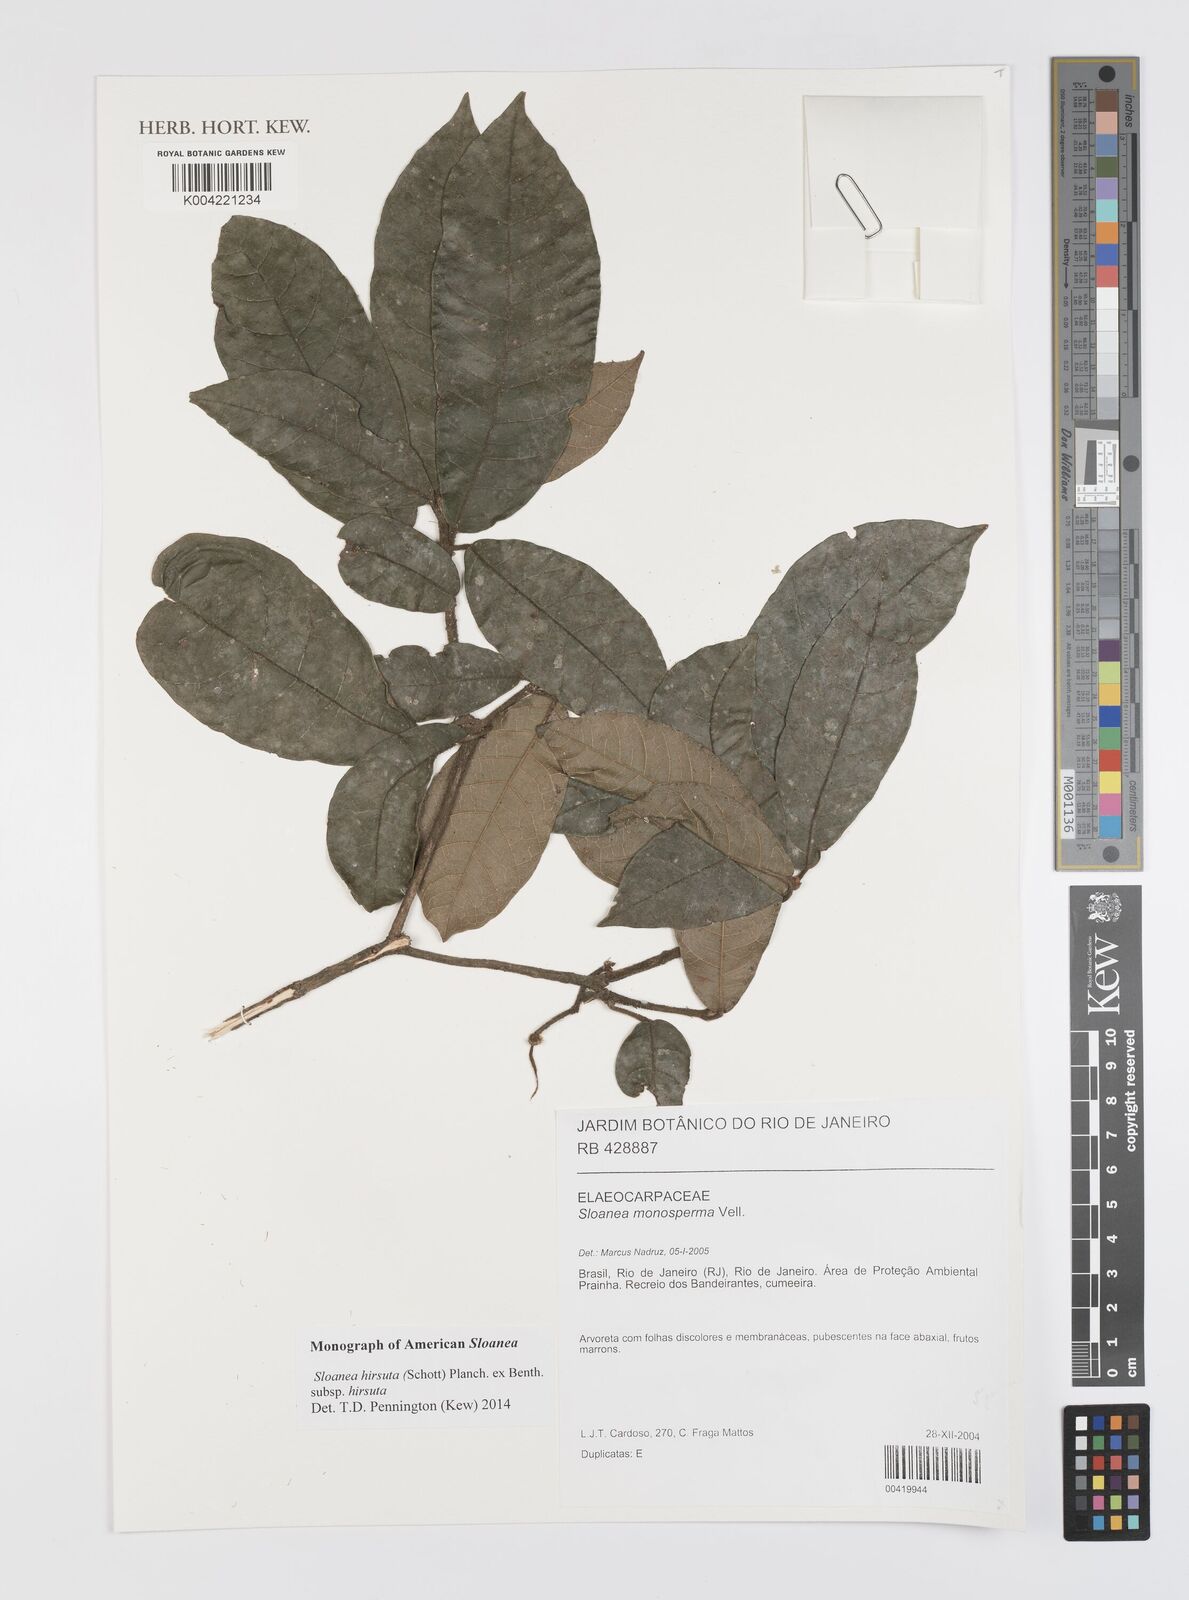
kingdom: Plantae
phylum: Tracheophyta
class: Magnoliopsida
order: Oxalidales
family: Elaeocarpaceae
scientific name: Elaeocarpaceae
